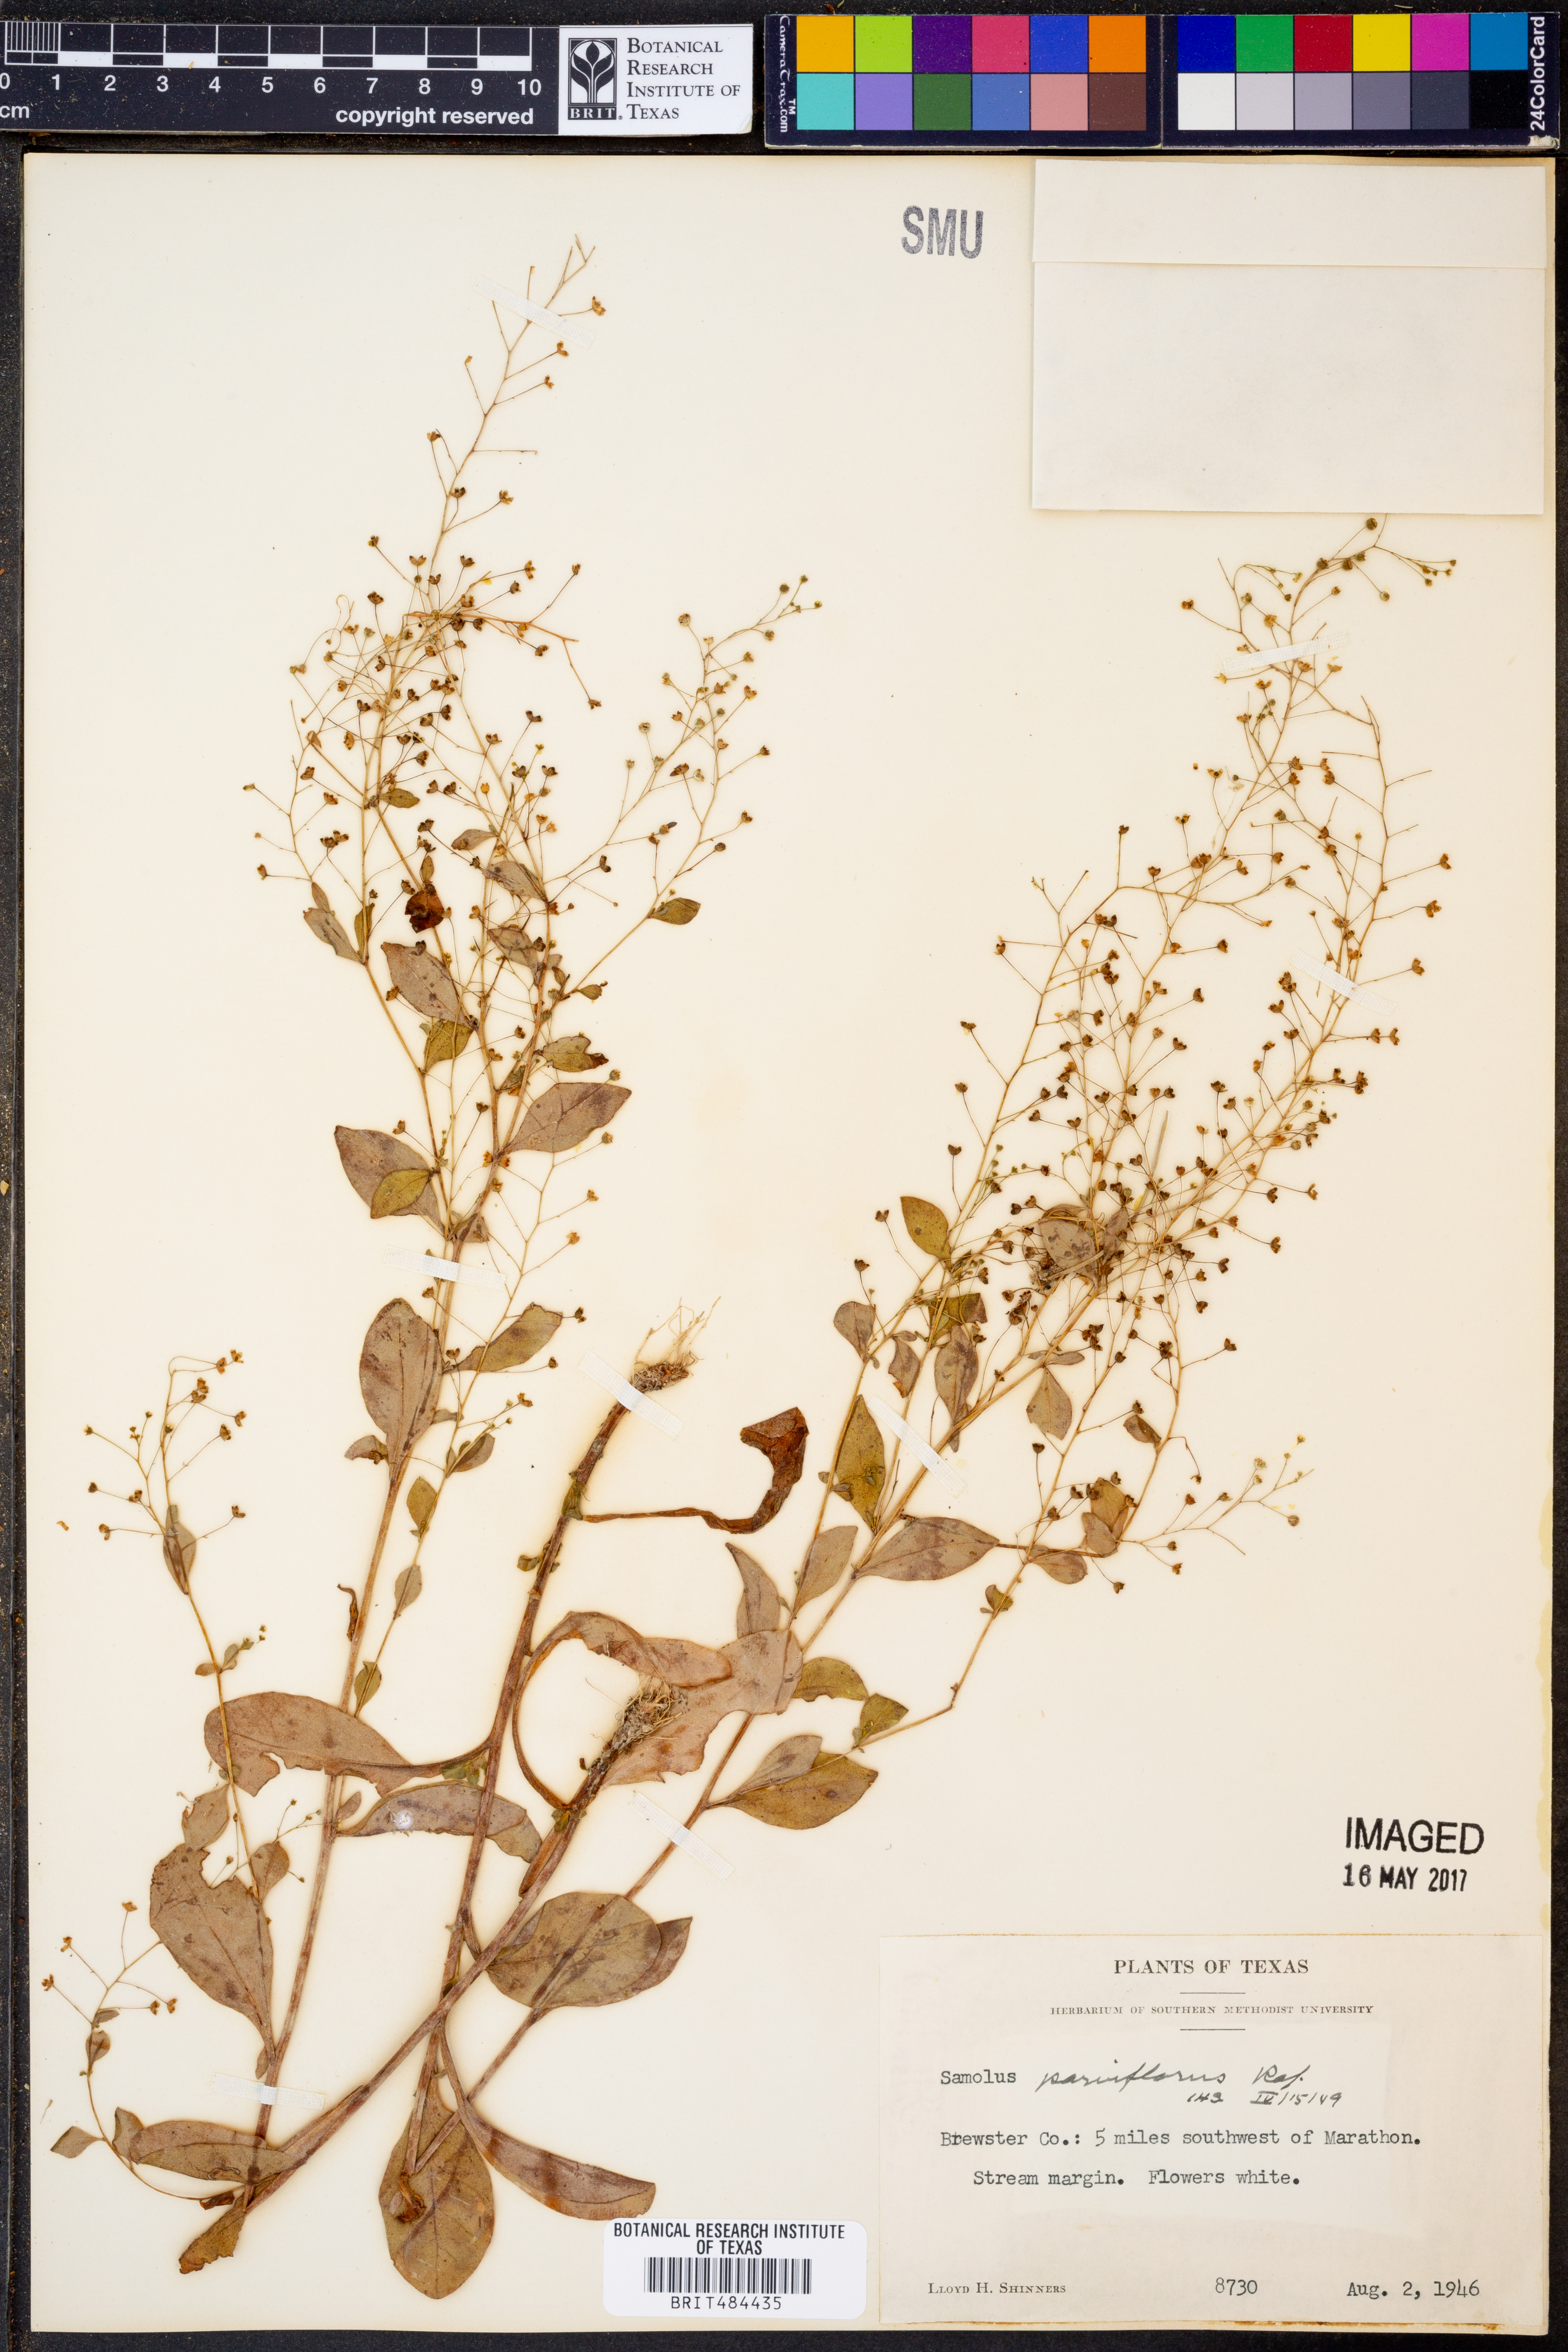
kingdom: Plantae
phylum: Tracheophyta
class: Magnoliopsida
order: Ericales
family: Primulaceae
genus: Samolus
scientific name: Samolus parviflorus
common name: False water pimpernel
